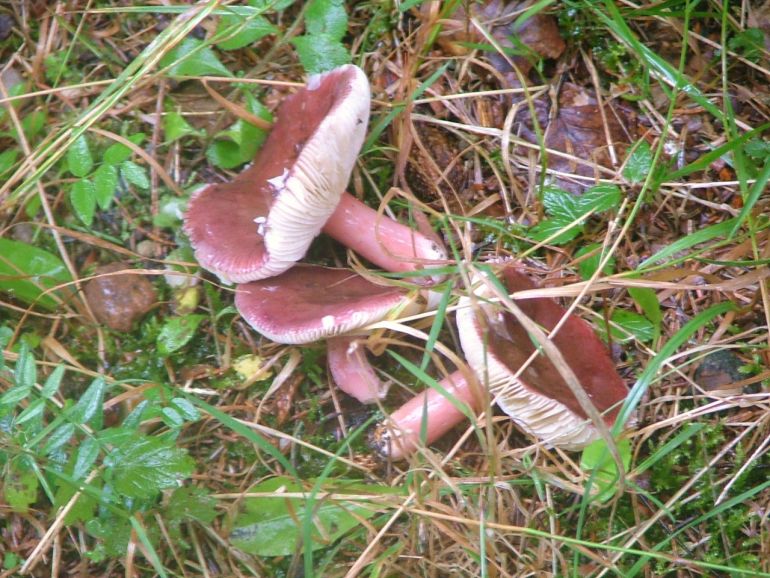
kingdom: Fungi
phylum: Basidiomycota
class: Agaricomycetes
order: Russulales
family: Russulaceae
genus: Russula
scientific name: Russula queletii
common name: Quélets skørhat
